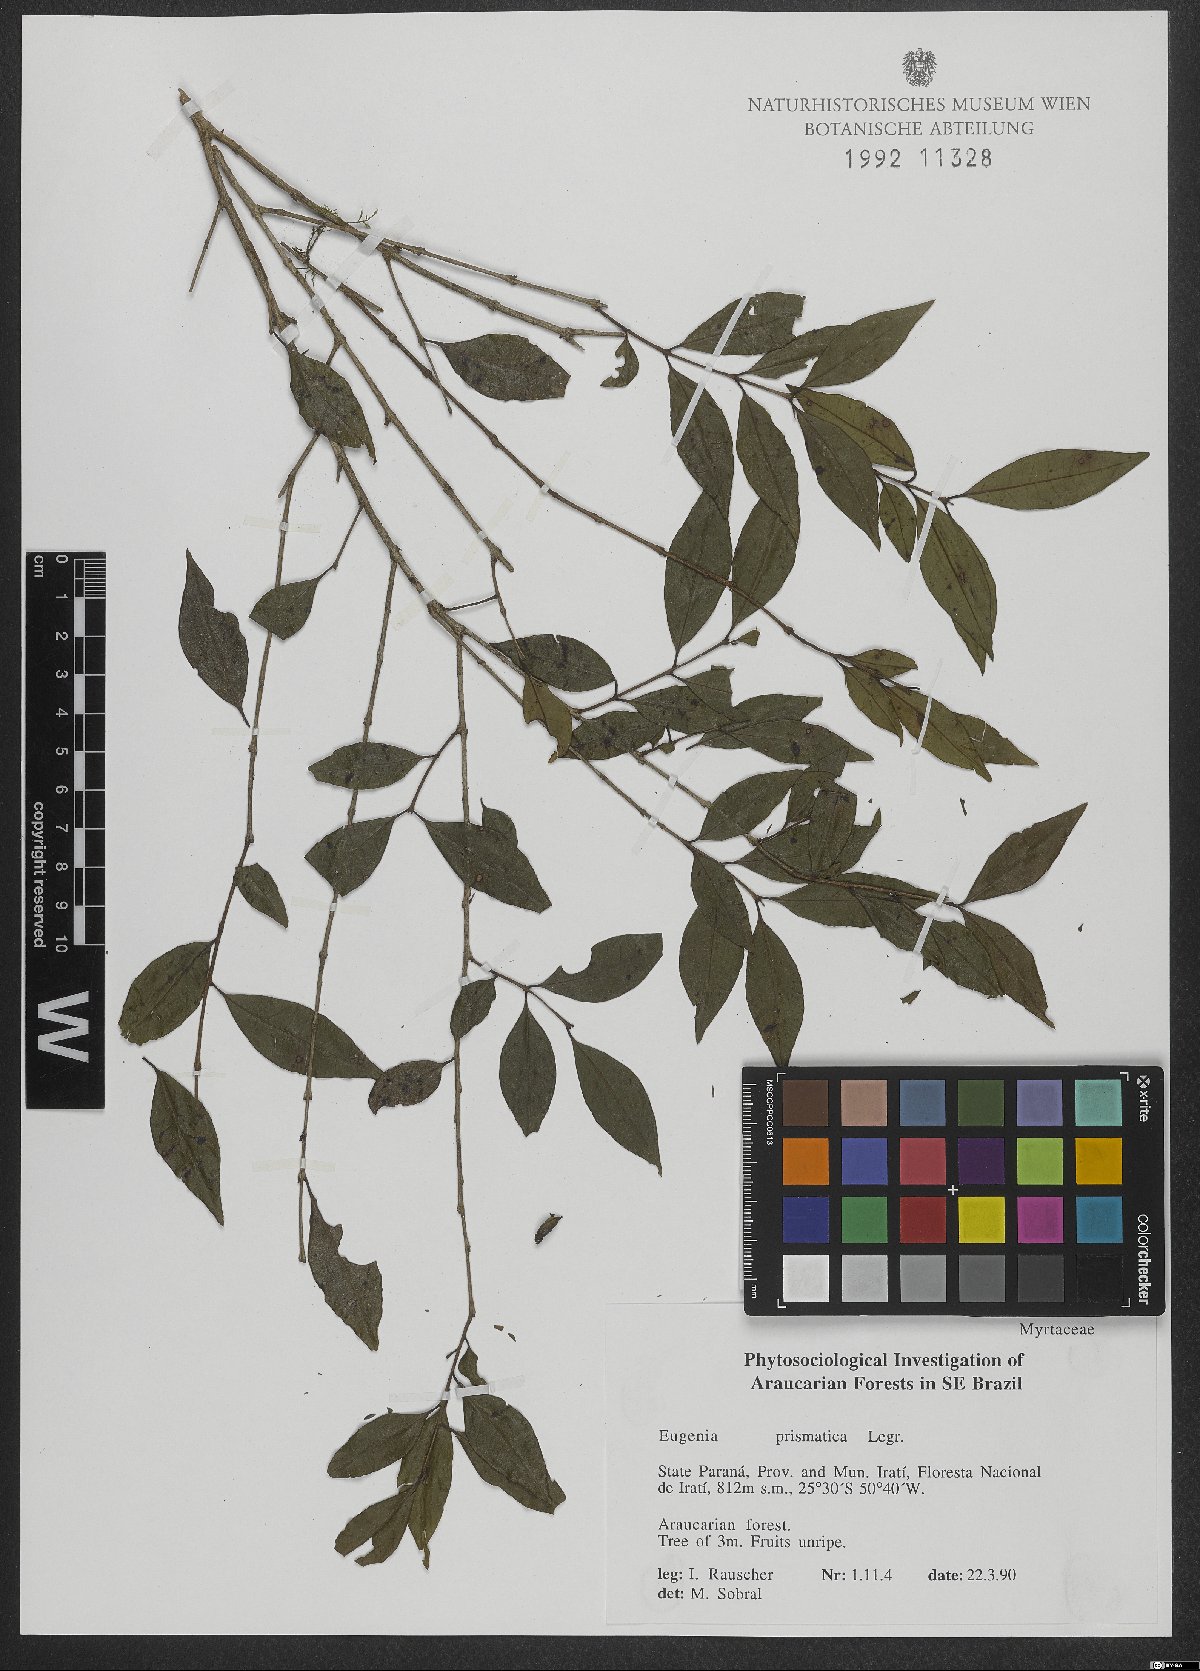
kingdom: Plantae
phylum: Tracheophyta
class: Magnoliopsida
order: Myrtales
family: Myrtaceae
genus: Curitiba
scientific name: Curitiba prismatica
